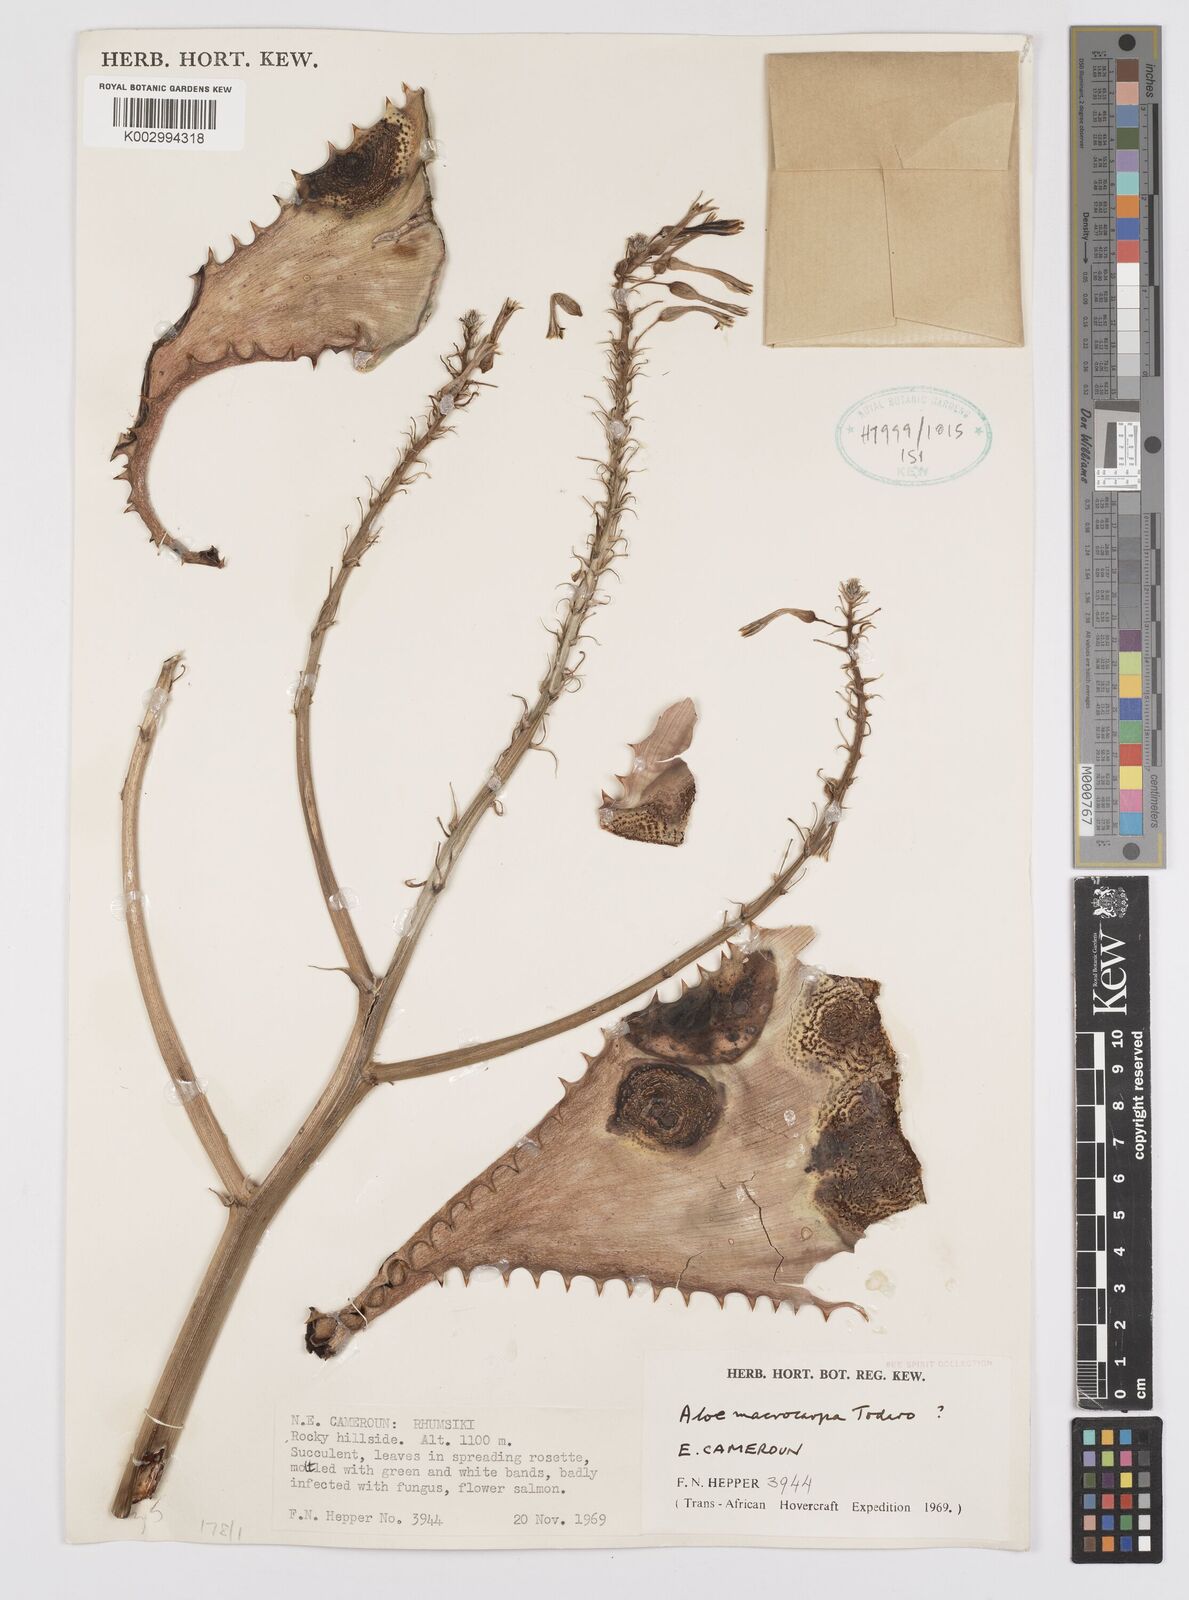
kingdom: Plantae
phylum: Tracheophyta
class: Liliopsida
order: Asparagales
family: Asphodelaceae
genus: Aloe
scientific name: Aloe macrocarpa
